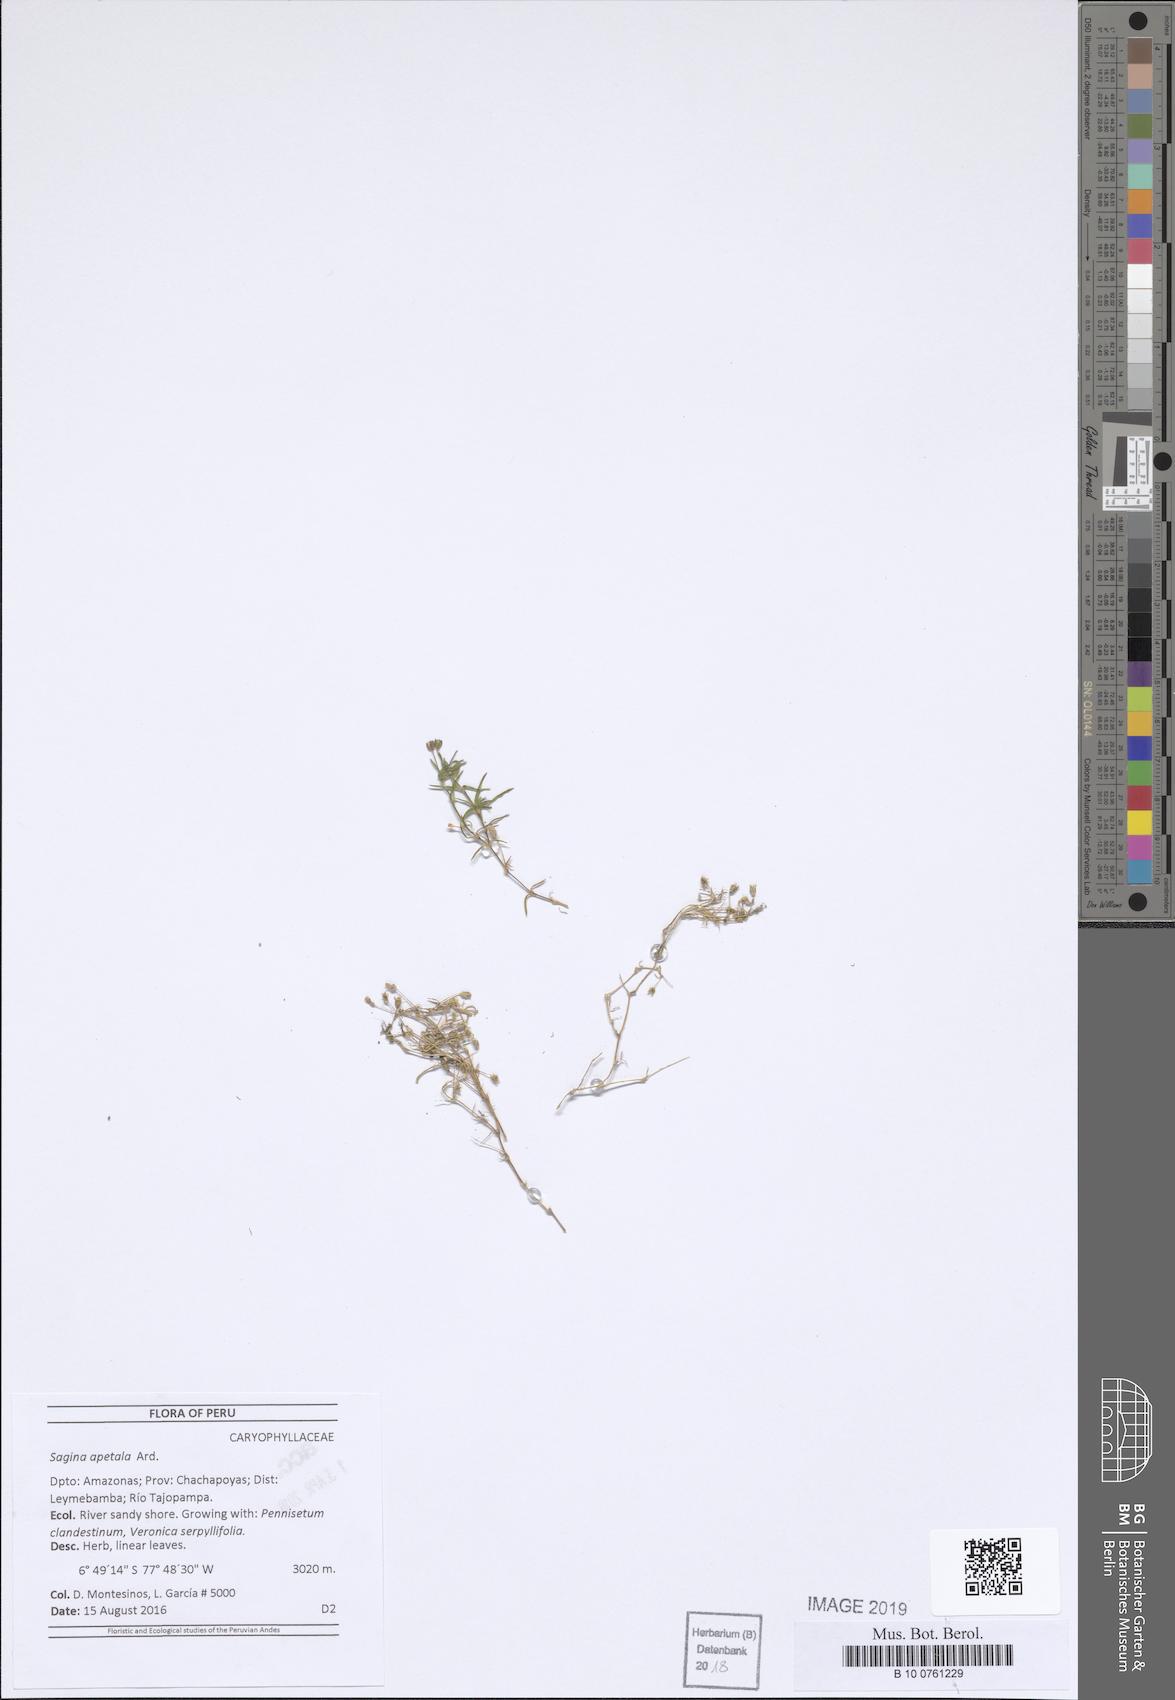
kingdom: Plantae
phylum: Tracheophyta
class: Magnoliopsida
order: Caryophyllales
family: Caryophyllaceae
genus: Sagina
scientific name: Sagina apetala
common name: Annual pearlwort
